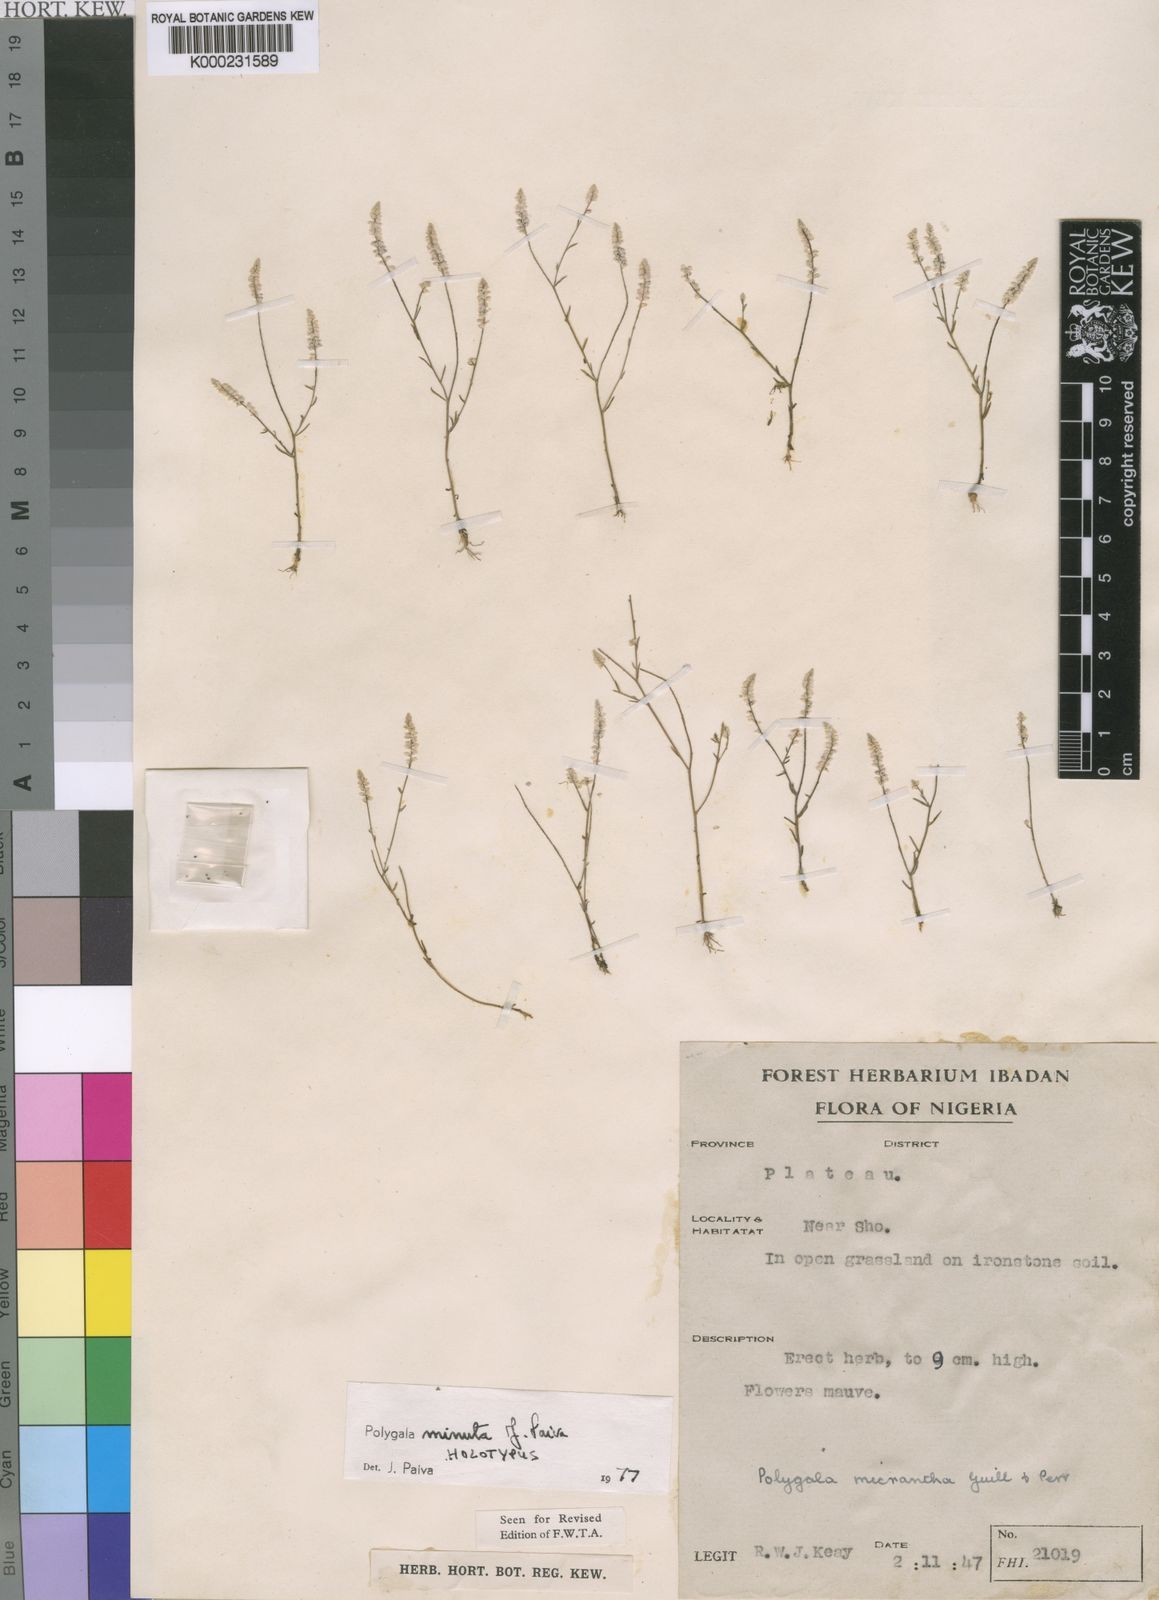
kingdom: Plantae
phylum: Tracheophyta
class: Magnoliopsida
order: Fabales
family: Polygalaceae
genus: Polygala
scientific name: Polygala minuta
